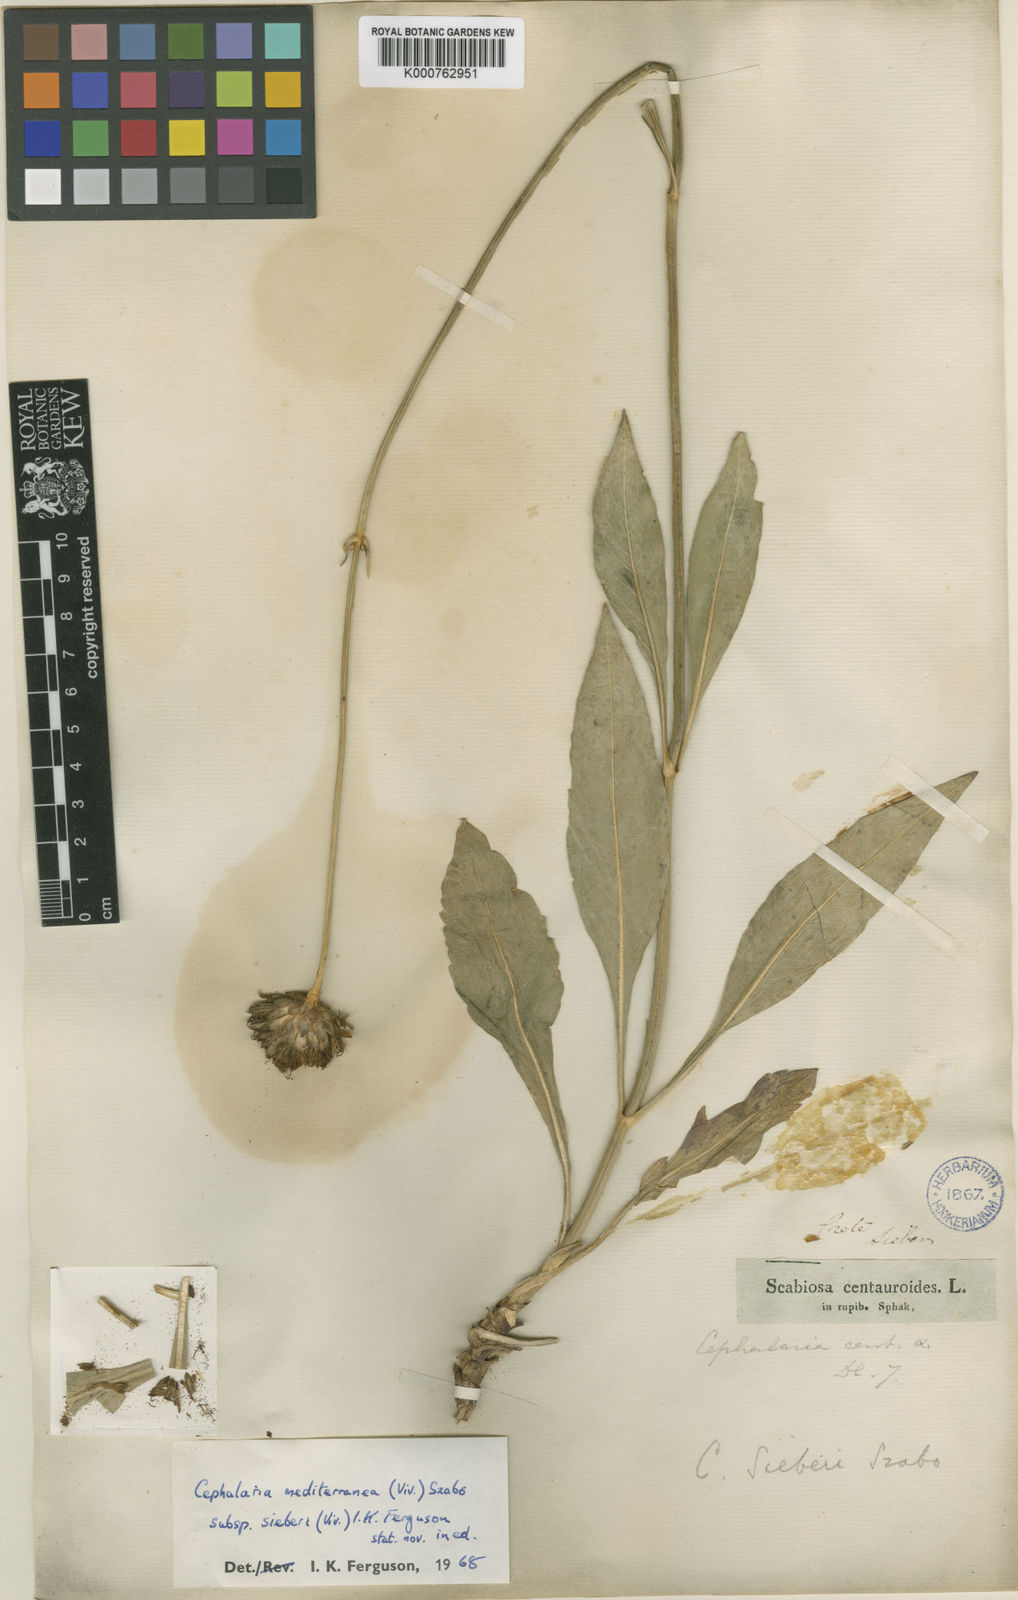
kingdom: Plantae
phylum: Tracheophyta
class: Magnoliopsida
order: Dipsacales
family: Caprifoliaceae
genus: Cephalaria
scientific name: Cephalaria squamiflora
